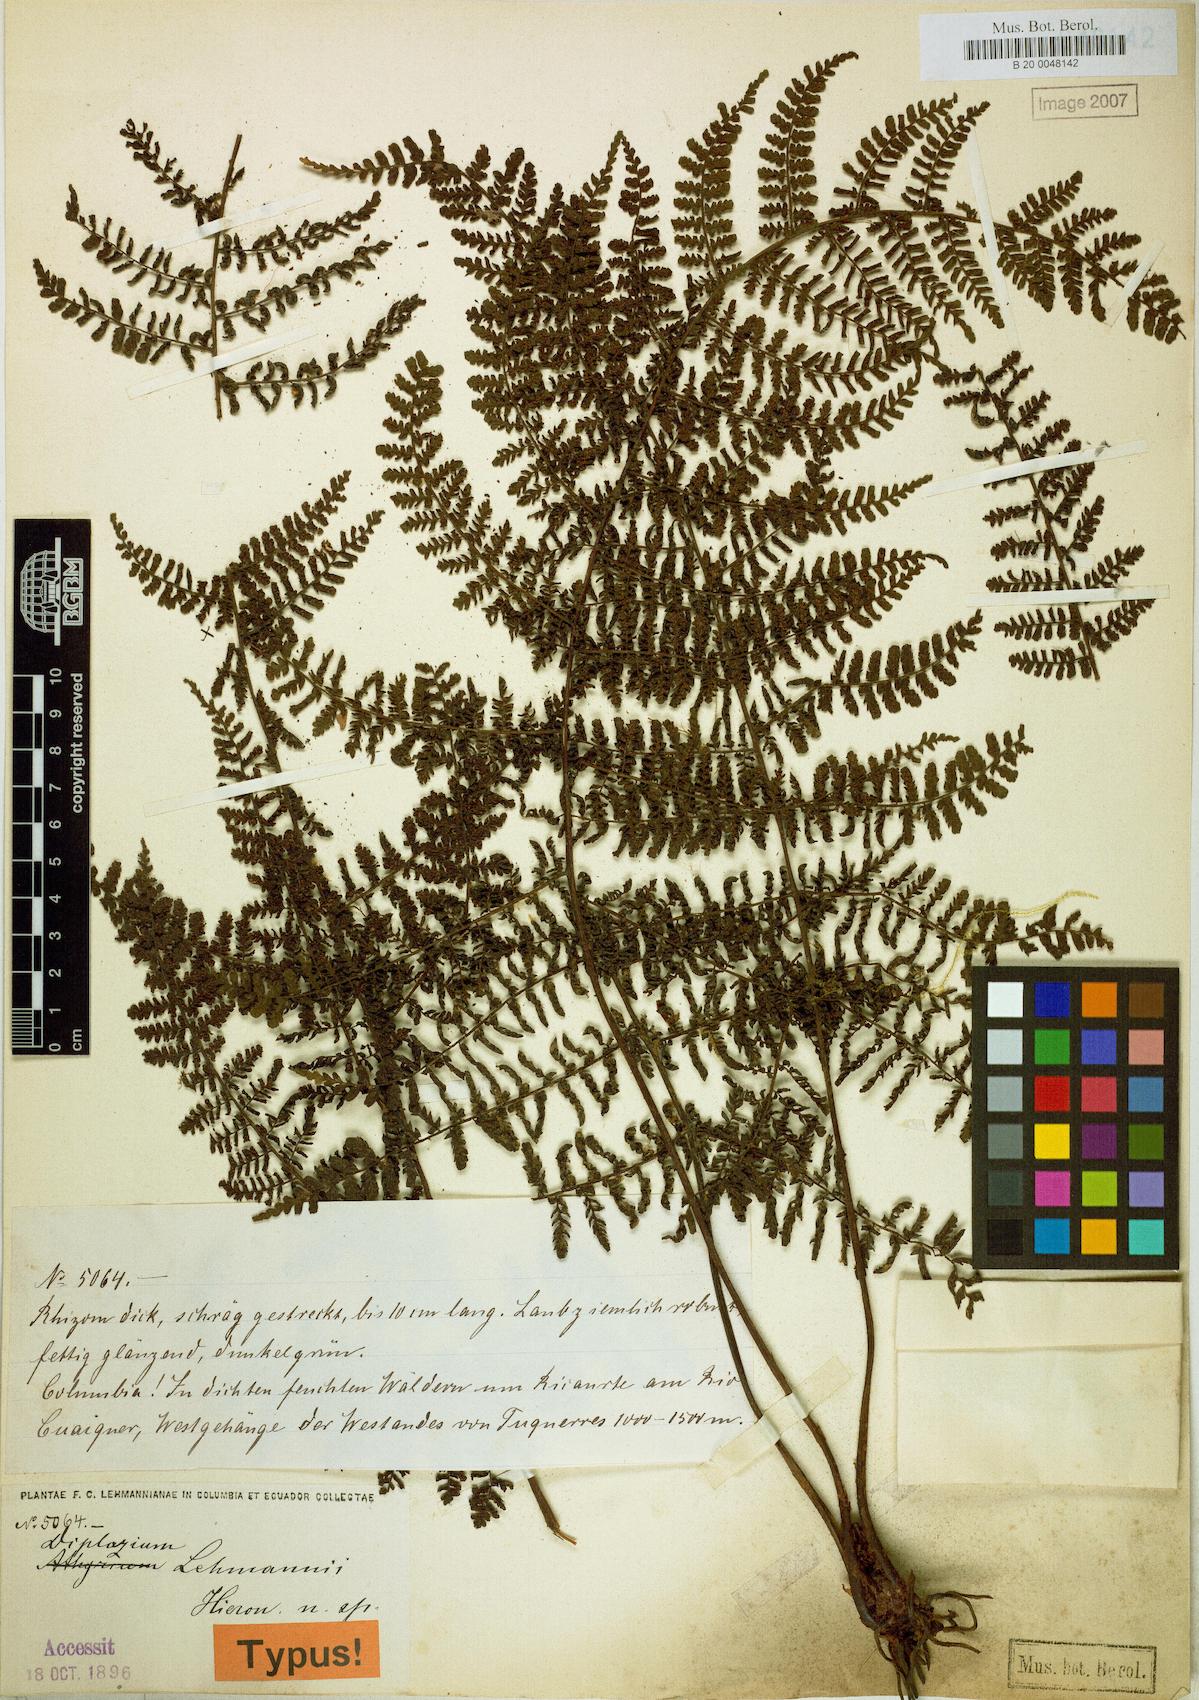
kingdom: Plantae
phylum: Tracheophyta
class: Polypodiopsida
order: Polypodiales
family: Athyriaceae
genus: Diplazium
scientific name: Diplazium alienum
